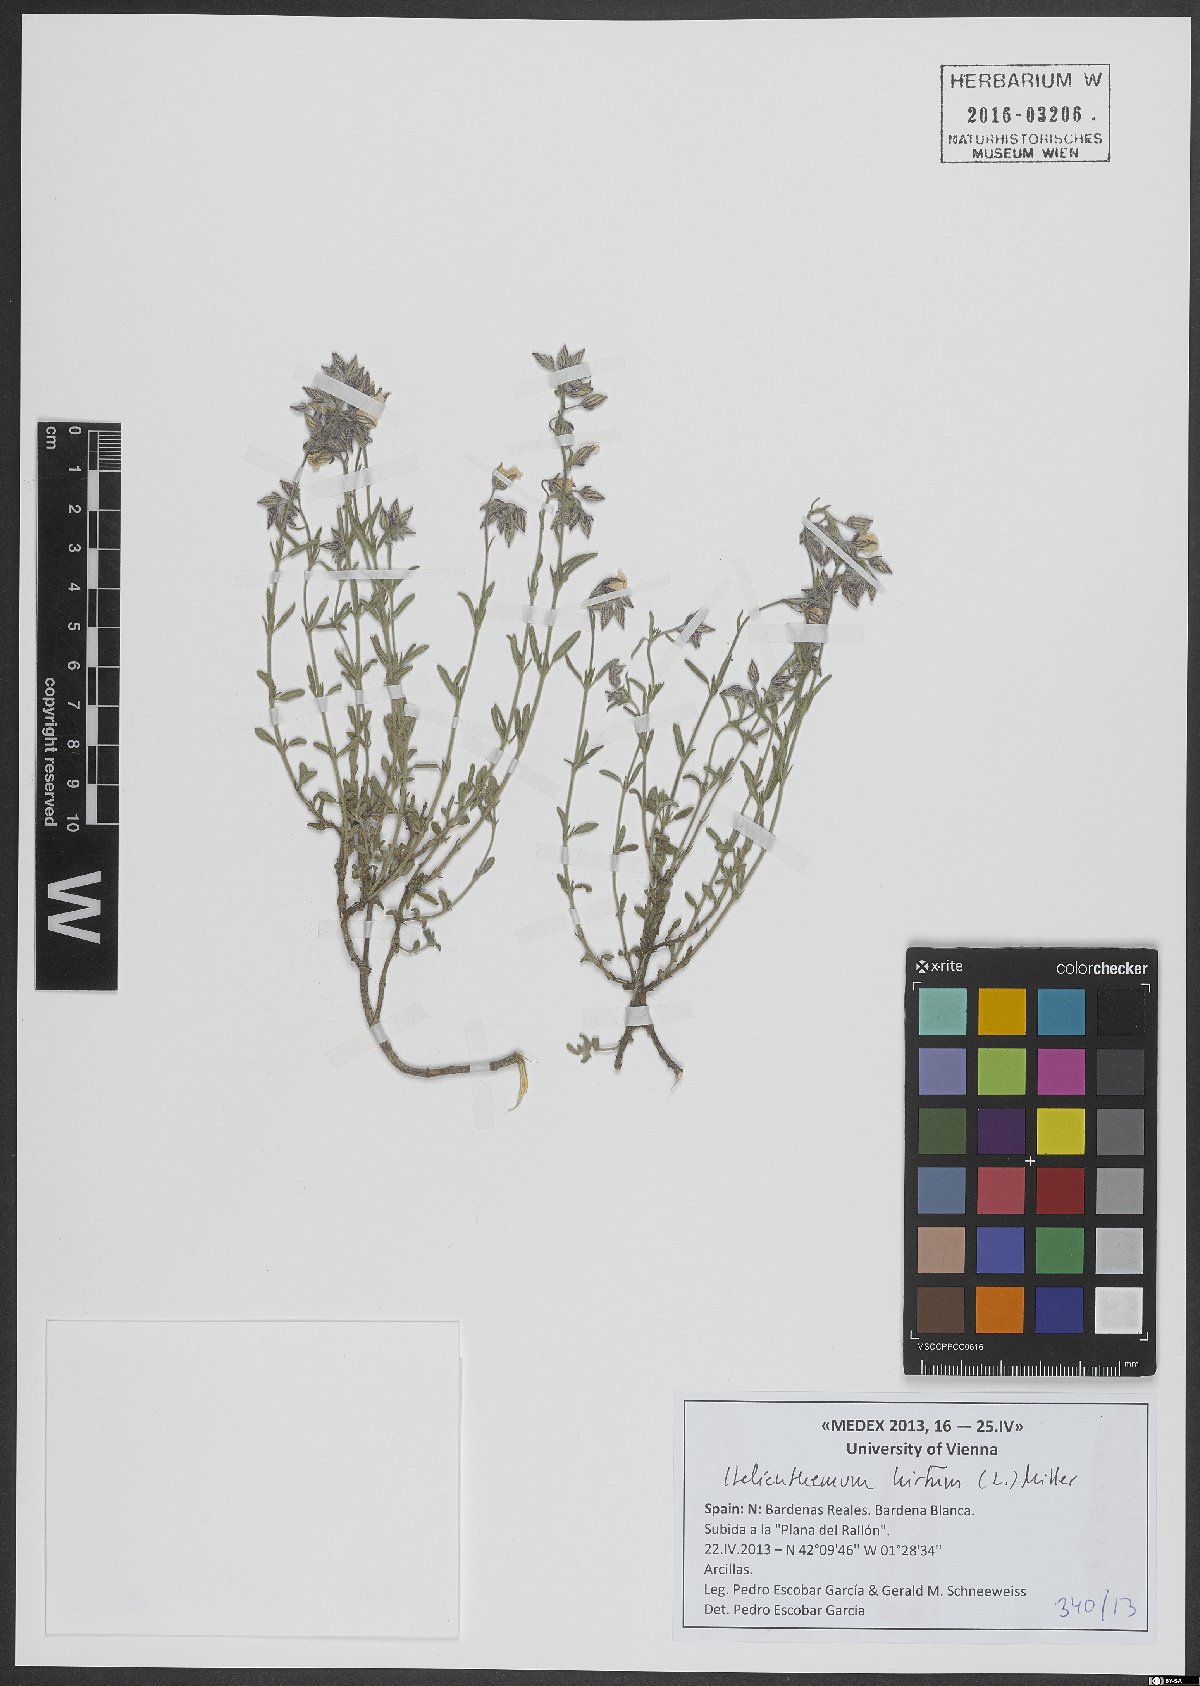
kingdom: Plantae
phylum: Tracheophyta
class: Magnoliopsida
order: Malvales
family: Cistaceae
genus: Helianthemum
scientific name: Helianthemum hirtum
